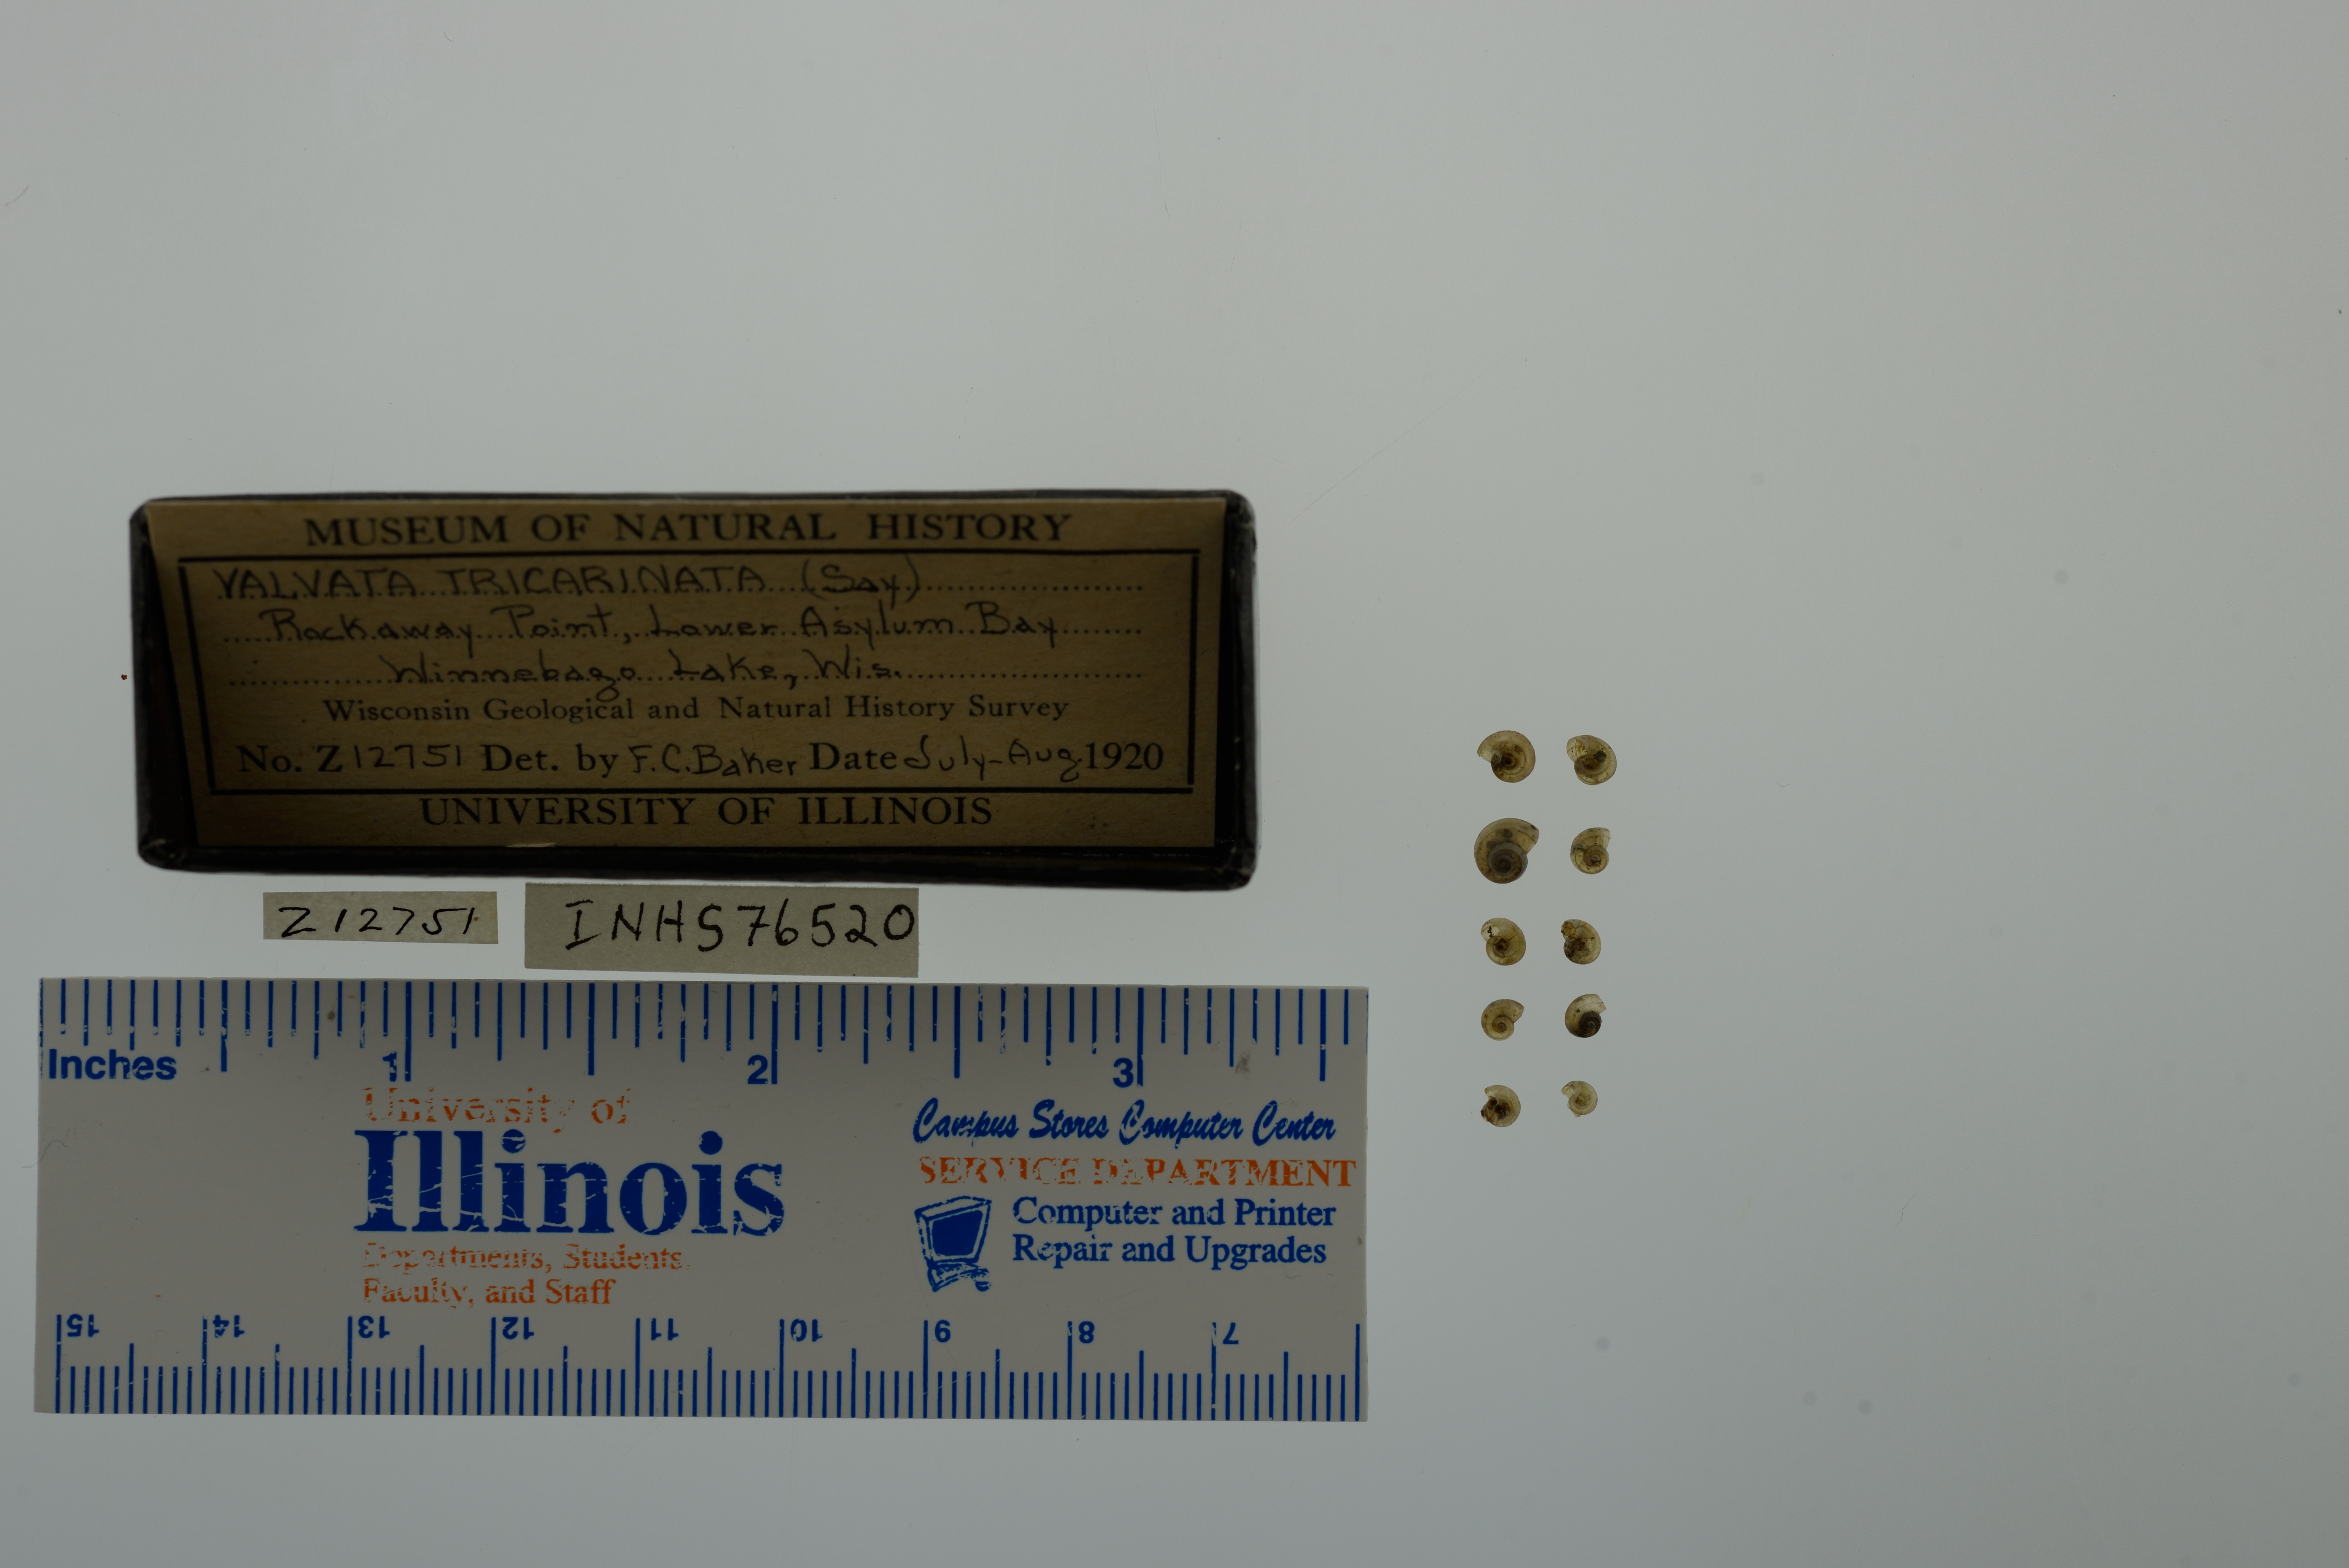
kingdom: Animalia
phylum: Mollusca
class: Gastropoda
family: Valvatidae
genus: Valvata
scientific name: Valvata tricarinata
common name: Three-ridge valvata
